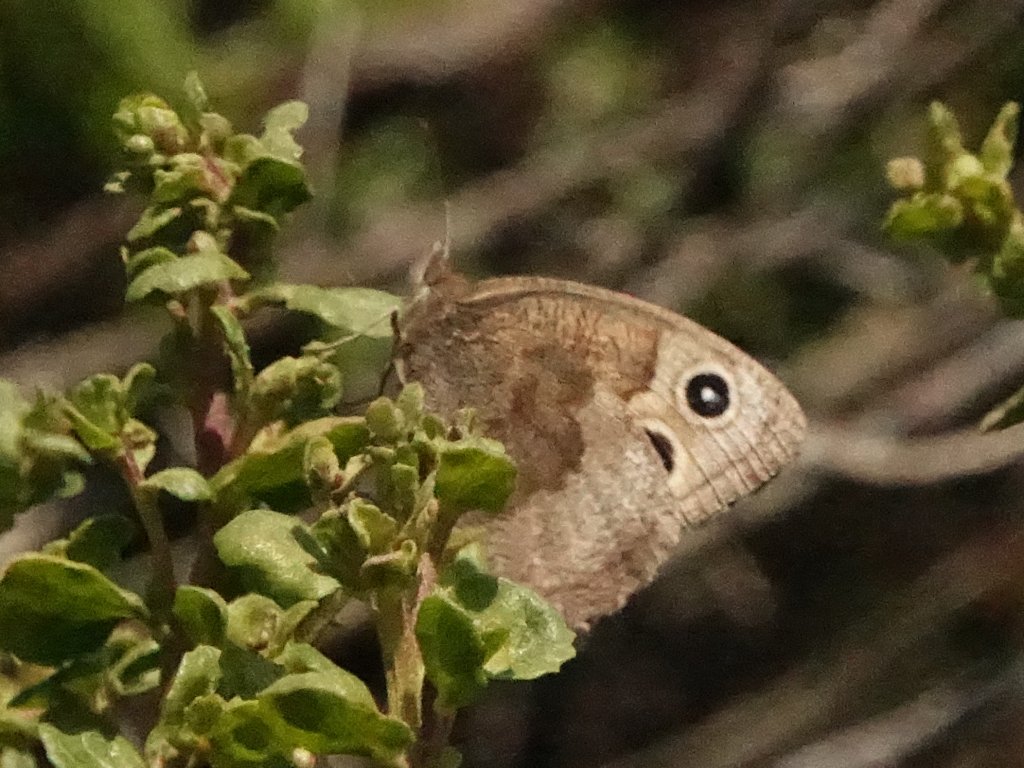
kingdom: Animalia
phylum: Arthropoda
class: Insecta
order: Lepidoptera
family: Nymphalidae
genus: Cercyonis
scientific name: Cercyonis pegala
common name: Common Wood-Nymph
